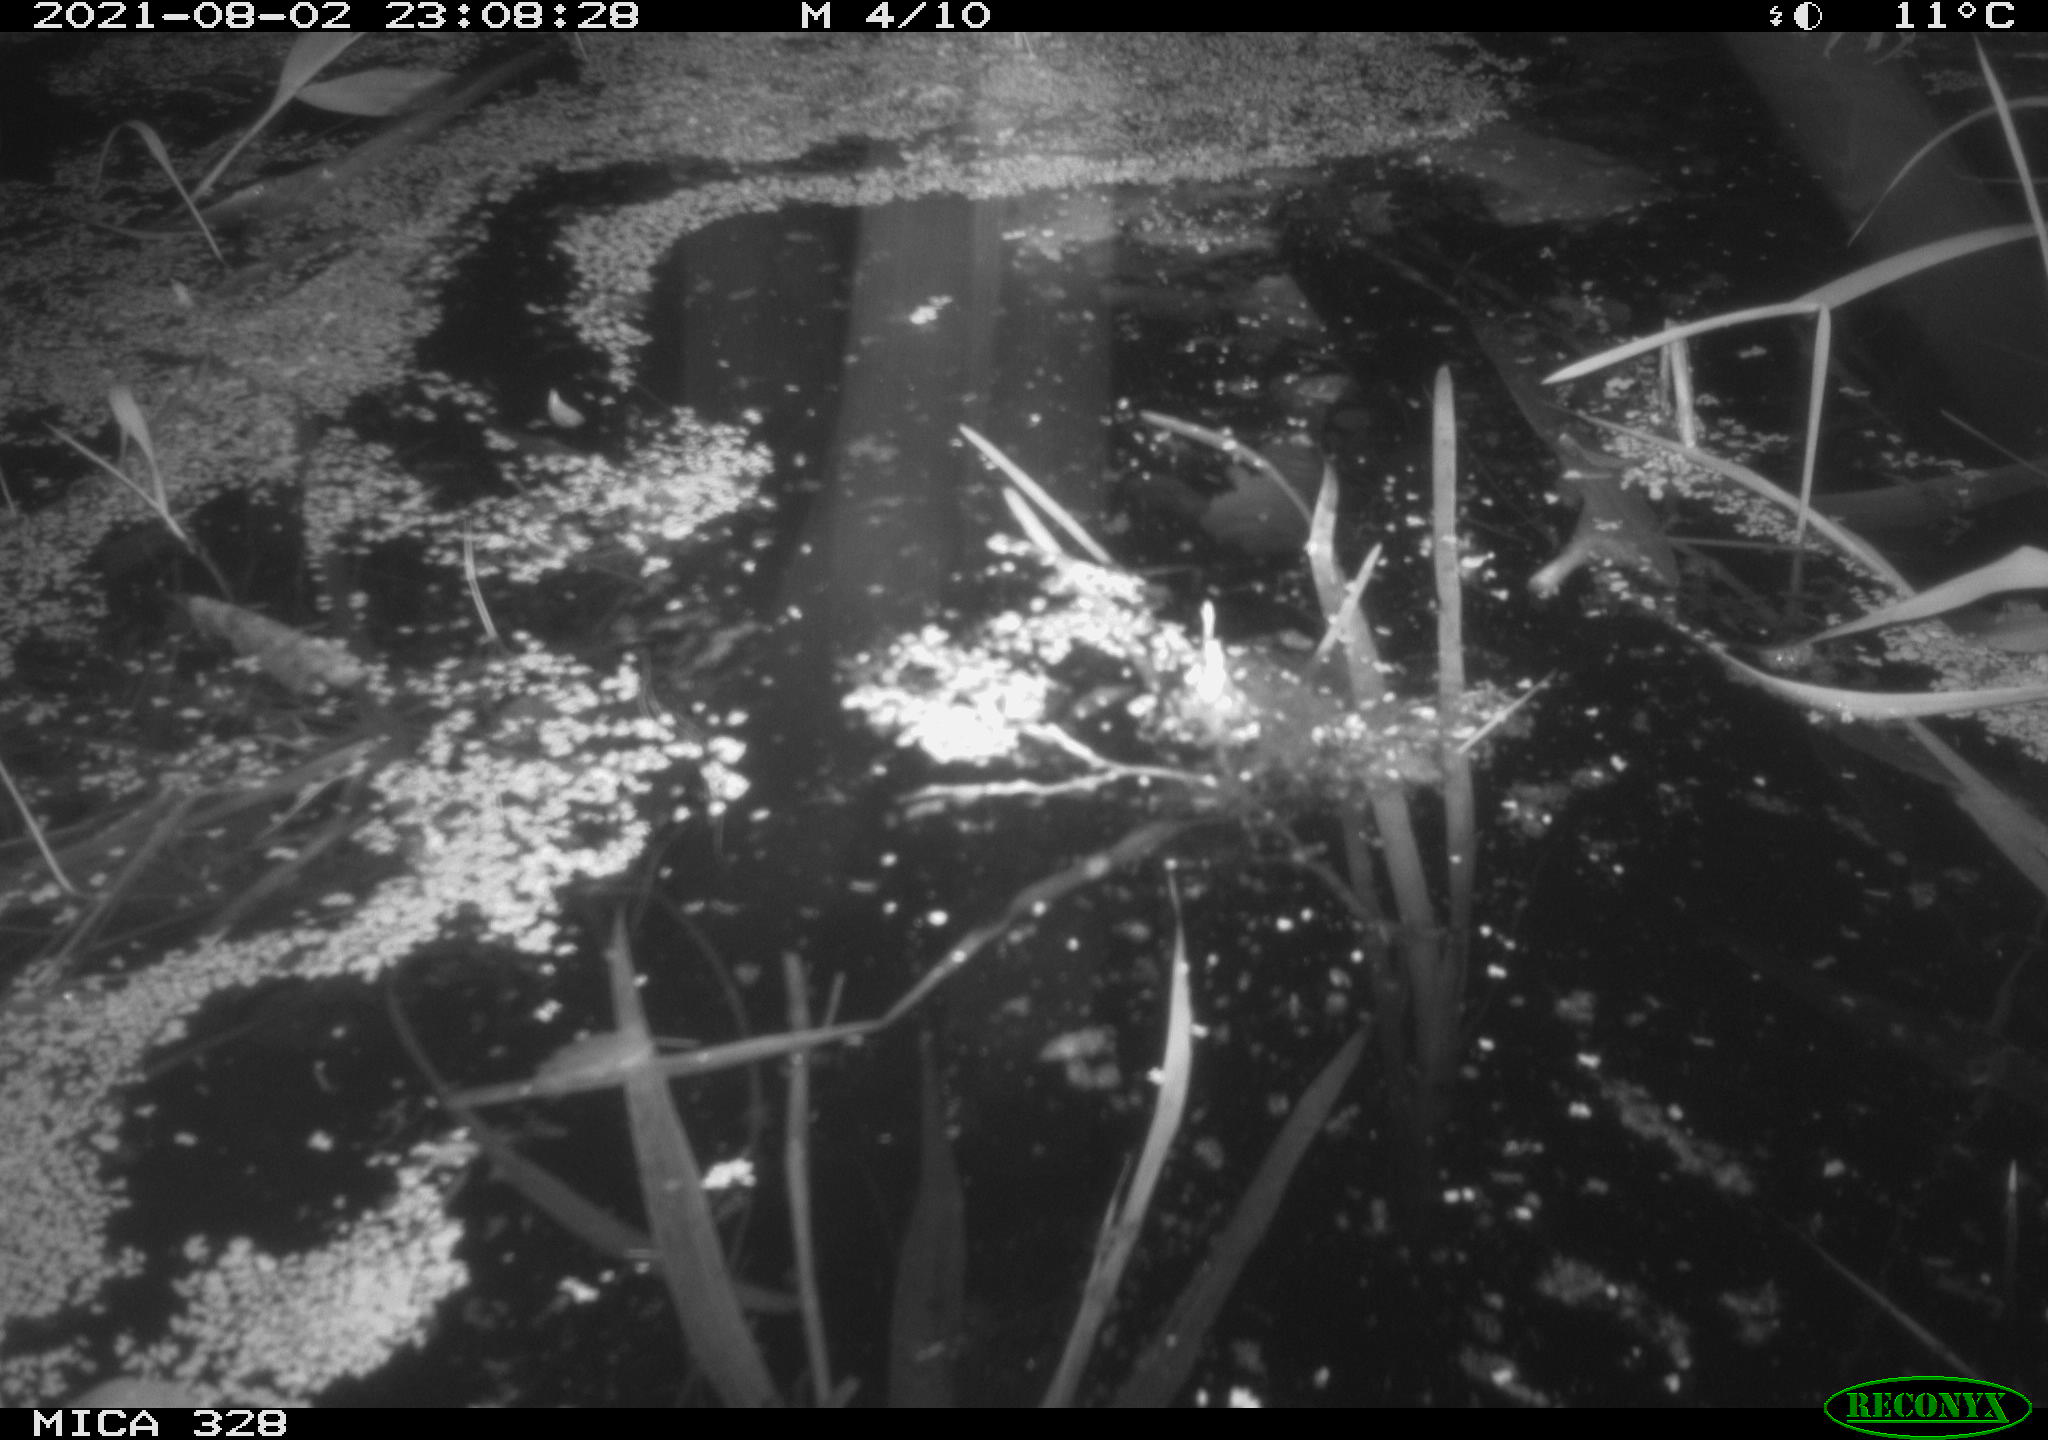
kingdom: Animalia
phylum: Chordata
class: Mammalia
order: Rodentia
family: Cricetidae
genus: Ondatra
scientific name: Ondatra zibethicus
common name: Muskrat
